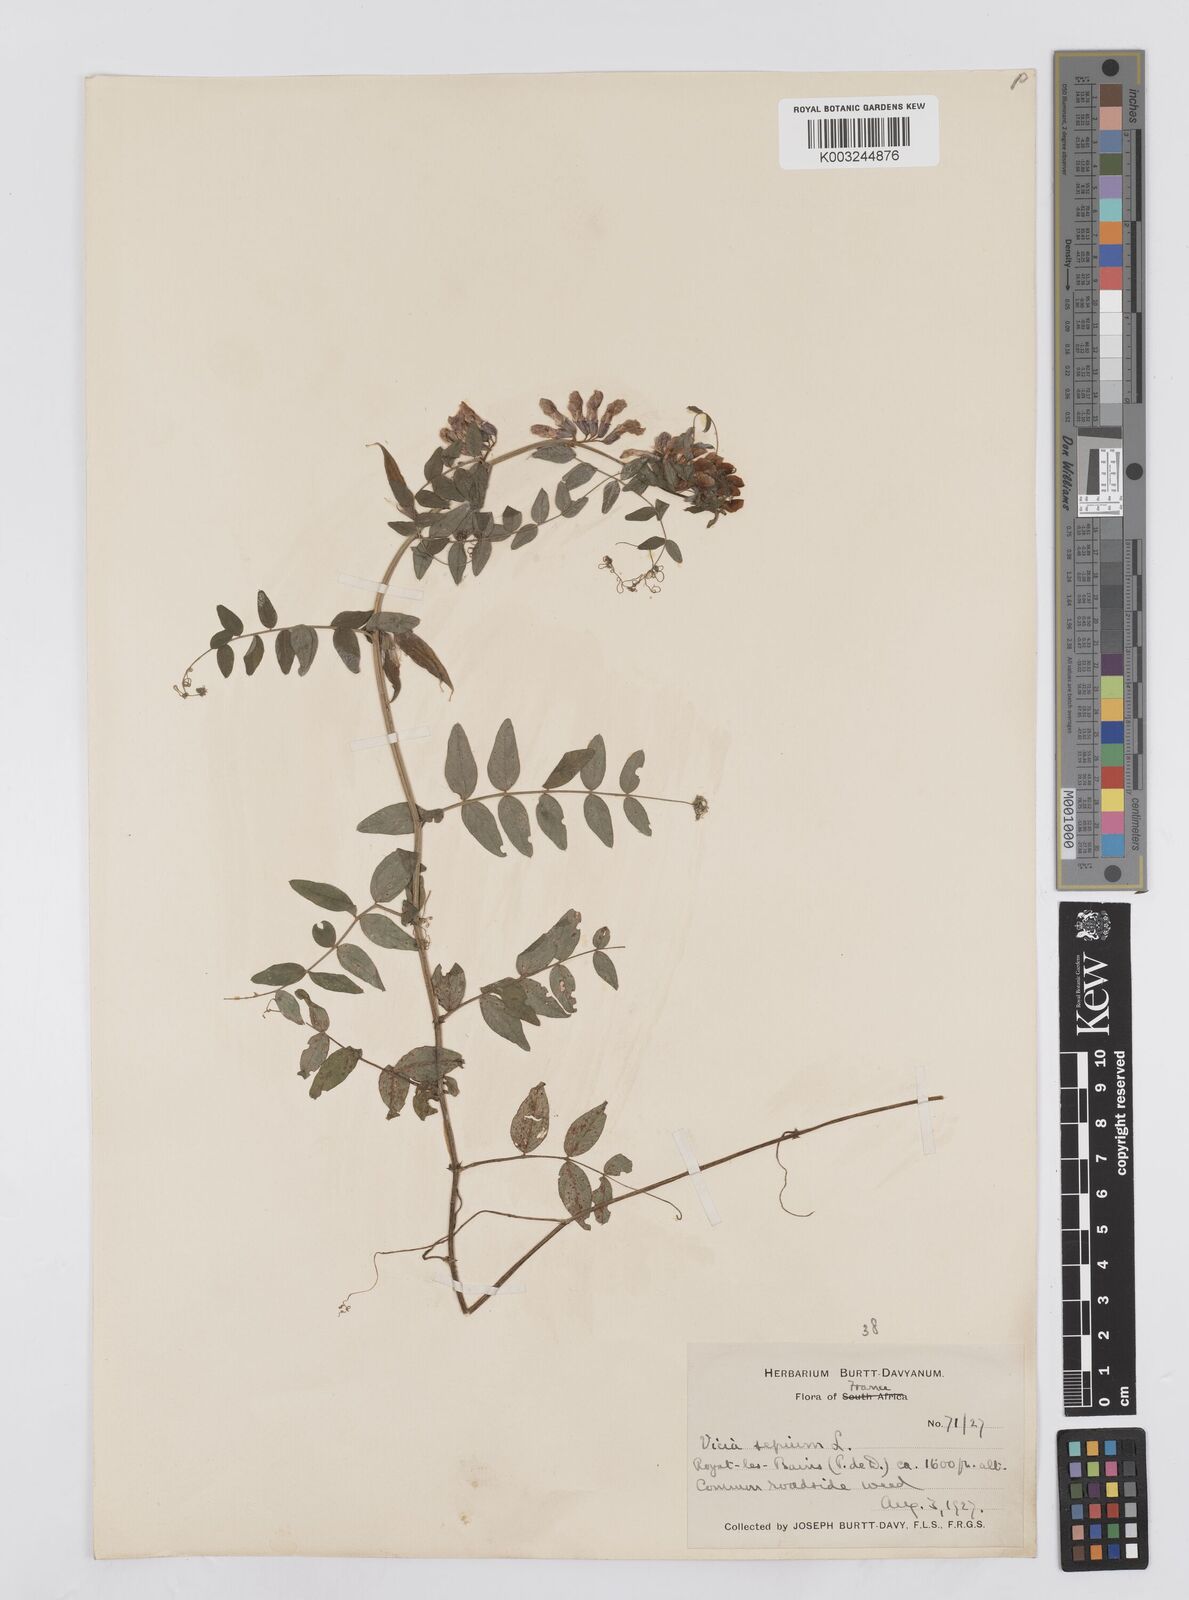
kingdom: Plantae
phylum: Tracheophyta
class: Magnoliopsida
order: Fabales
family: Fabaceae
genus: Vicia
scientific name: Vicia sepium
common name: Bush vetch
